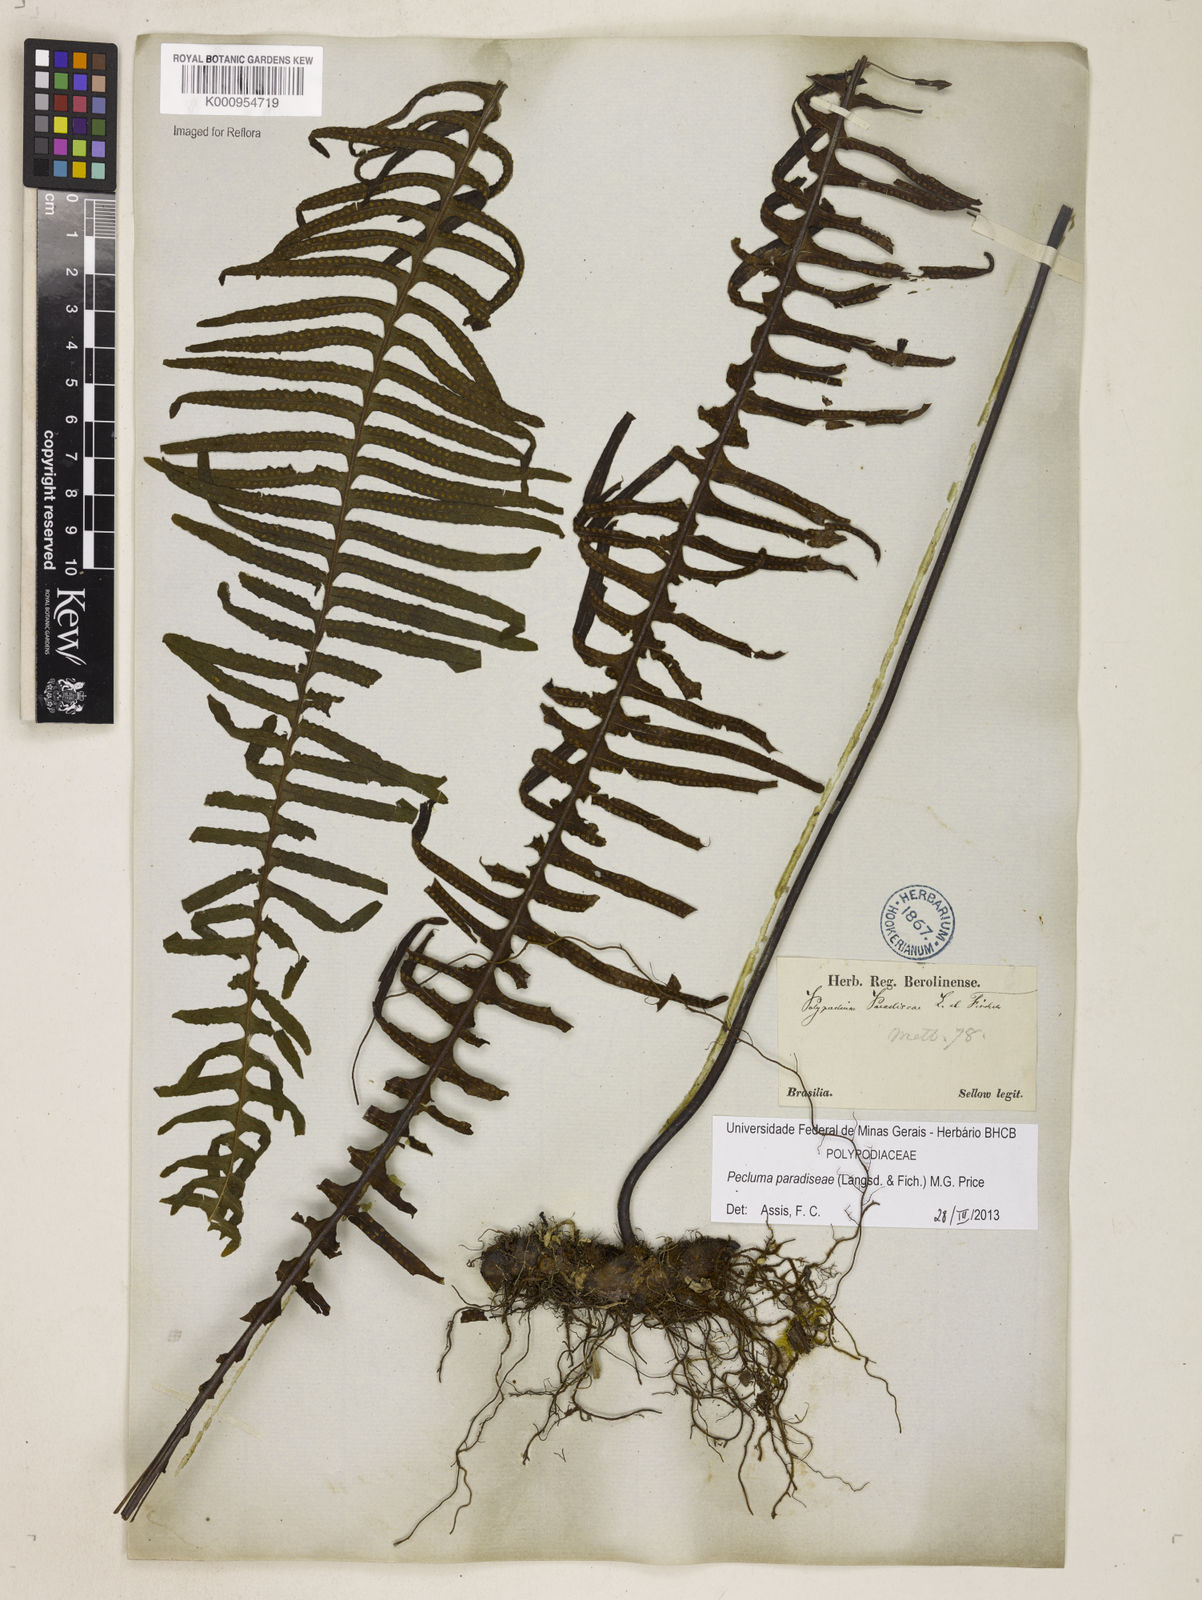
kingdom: Plantae
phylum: Tracheophyta
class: Polypodiopsida
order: Polypodiales
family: Polypodiaceae
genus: Pecluma
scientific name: Pecluma paradiseae
